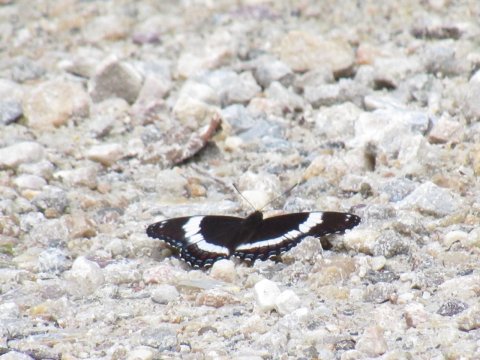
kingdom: Animalia
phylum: Arthropoda
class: Insecta
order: Lepidoptera
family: Nymphalidae
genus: Limenitis
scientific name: Limenitis arthemis
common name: Red-spotted Admiral
